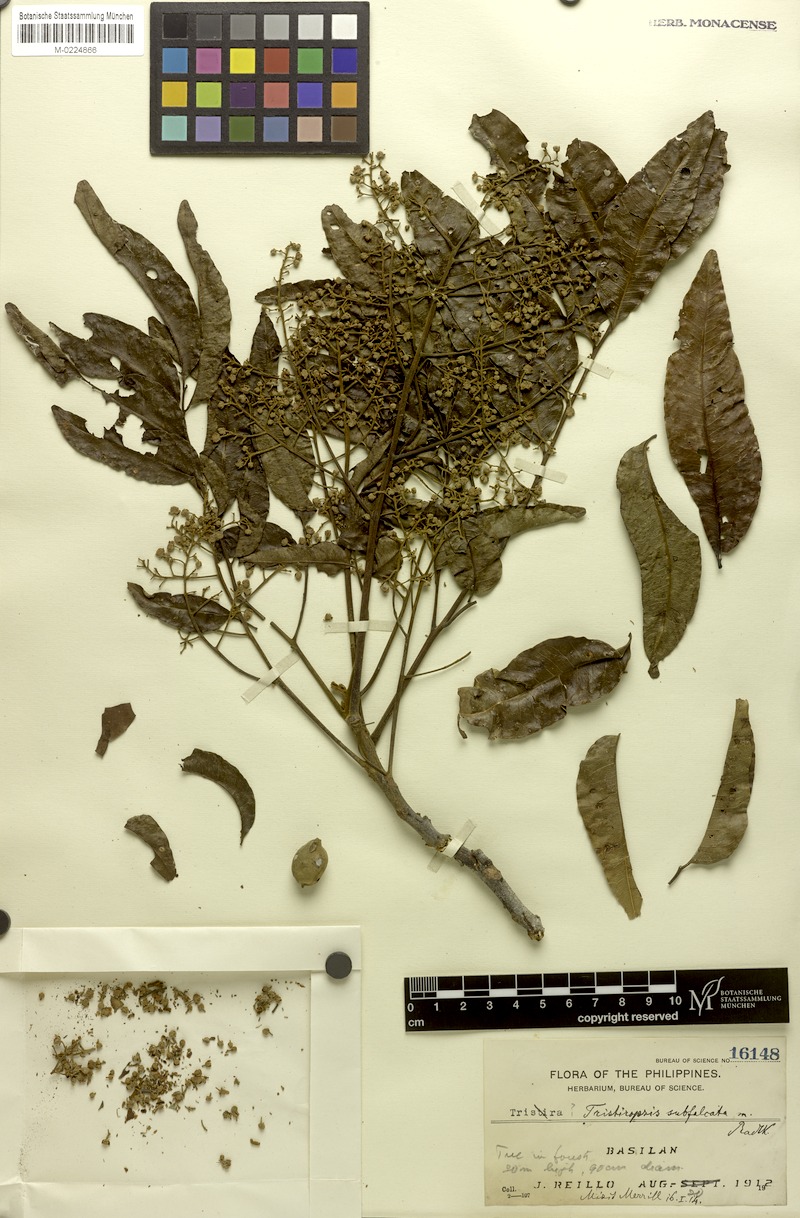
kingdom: Plantae
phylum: Tracheophyta
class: Magnoliopsida
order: Sapindales
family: Sapindaceae
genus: Tristiropsis
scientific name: Tristiropsis acutangula
